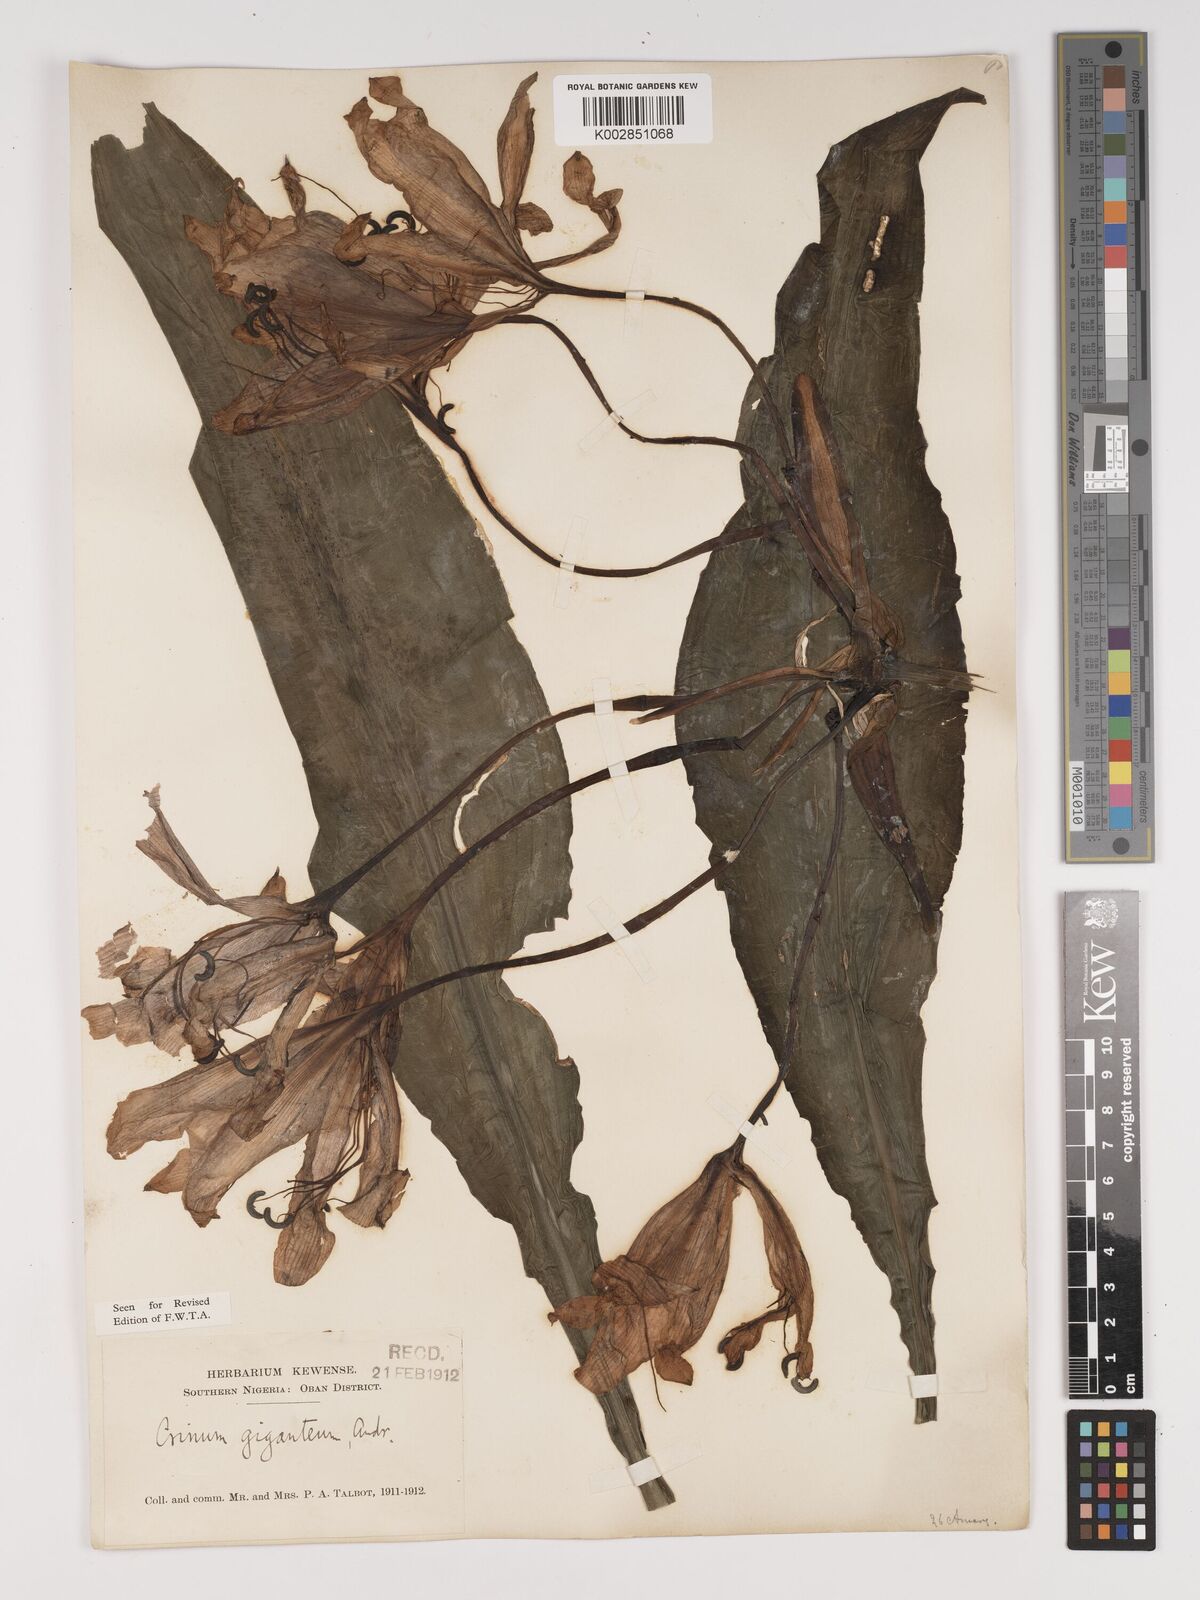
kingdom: Plantae
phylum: Tracheophyta
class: Liliopsida
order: Asparagales
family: Amaryllidaceae
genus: Crinum
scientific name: Crinum jagus
